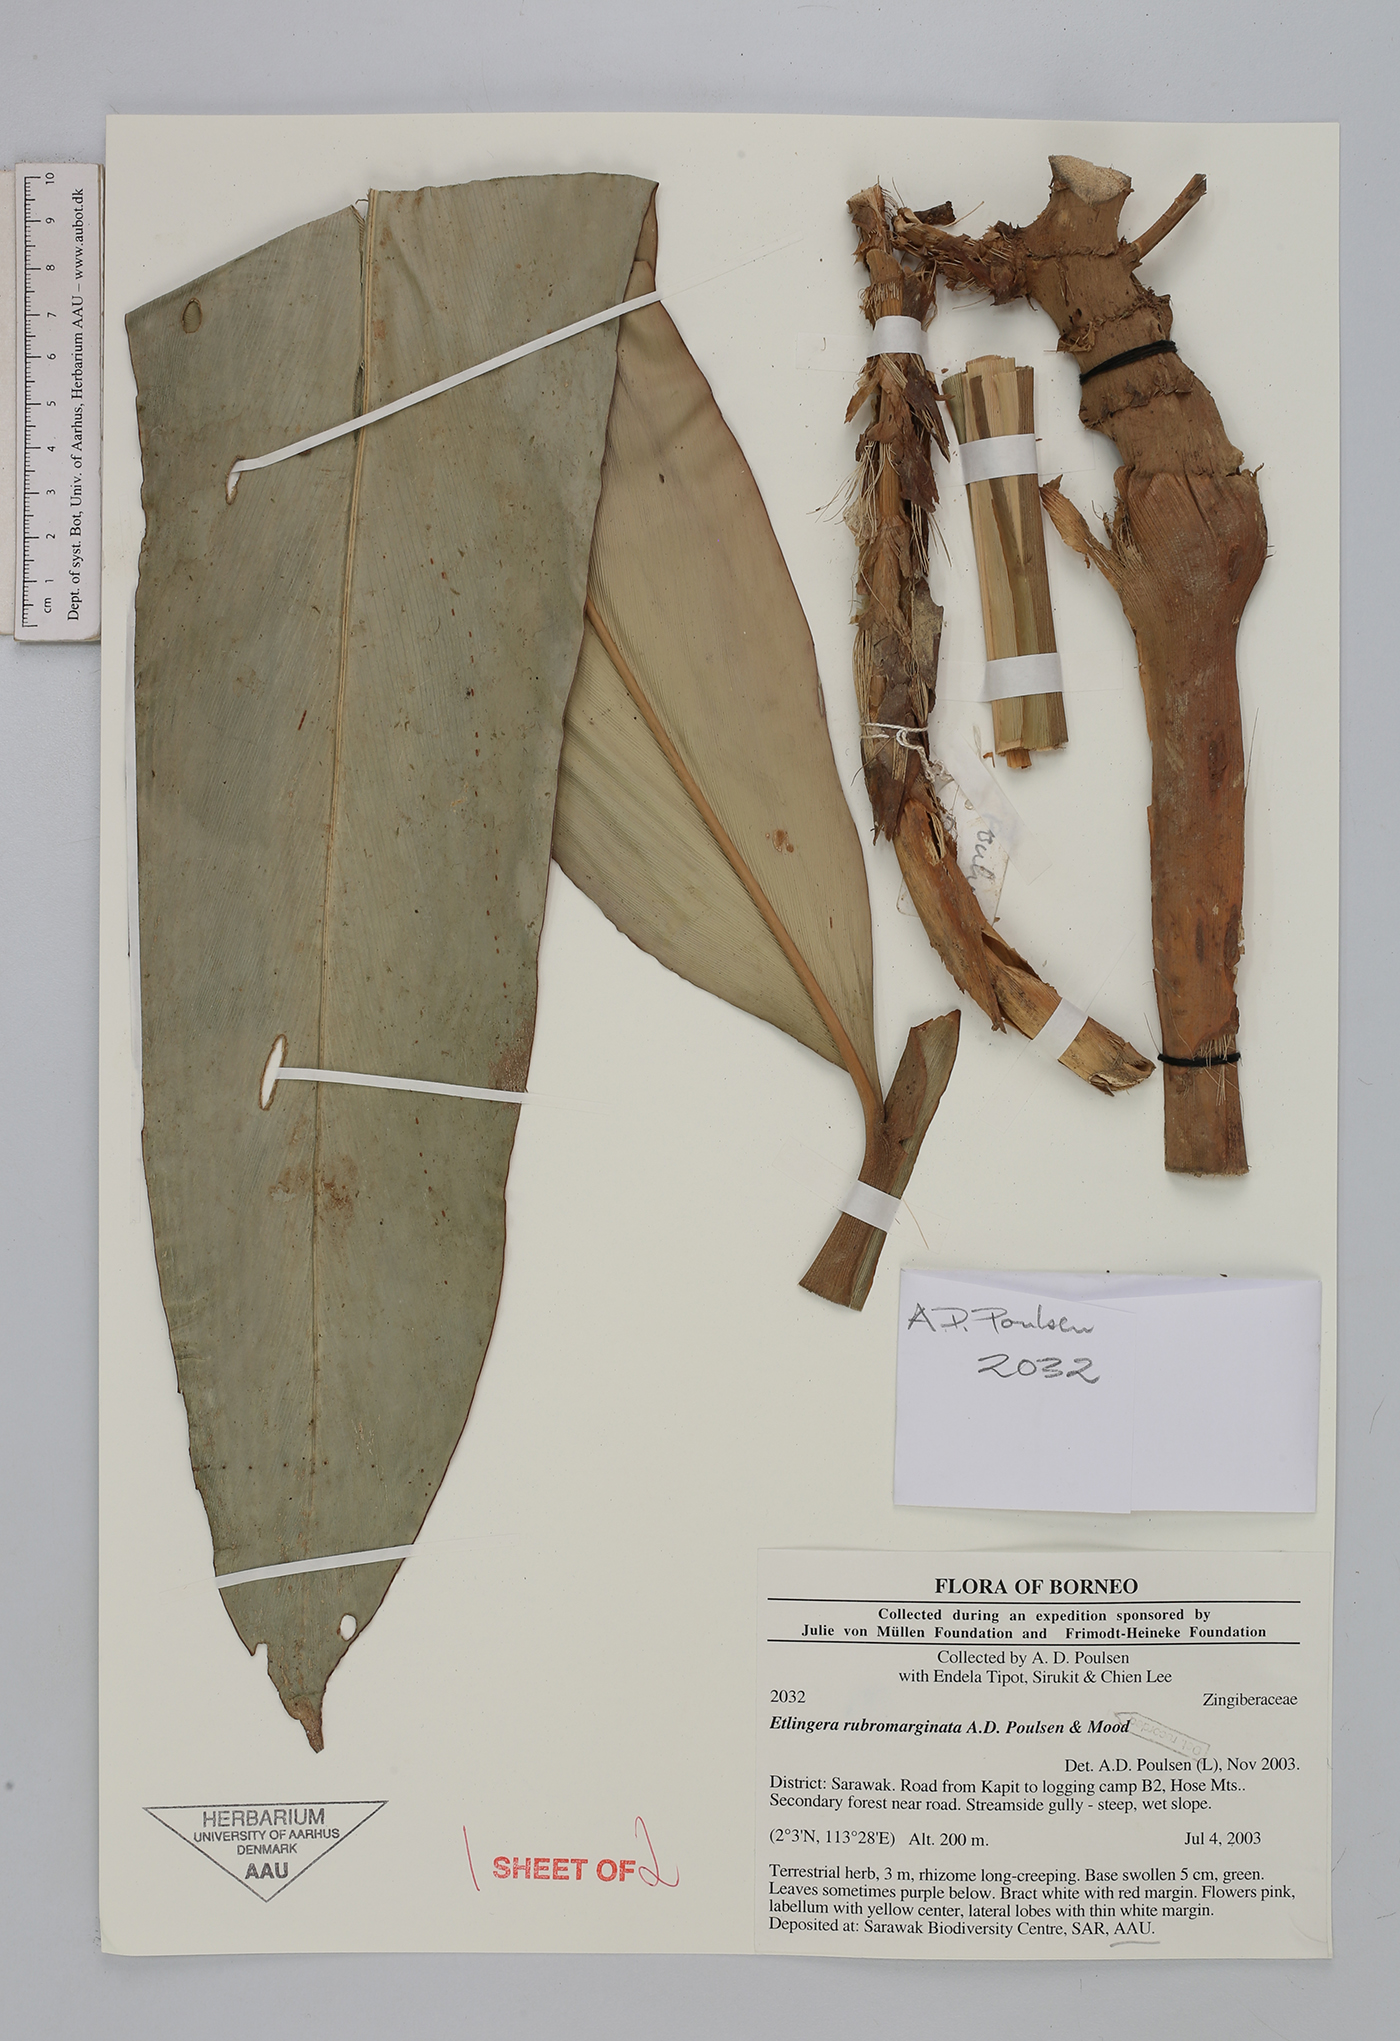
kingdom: Plantae
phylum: Tracheophyta
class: Liliopsida
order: Zingiberales
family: Zingiberaceae
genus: Etlingera
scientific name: Etlingera rubromarginata
